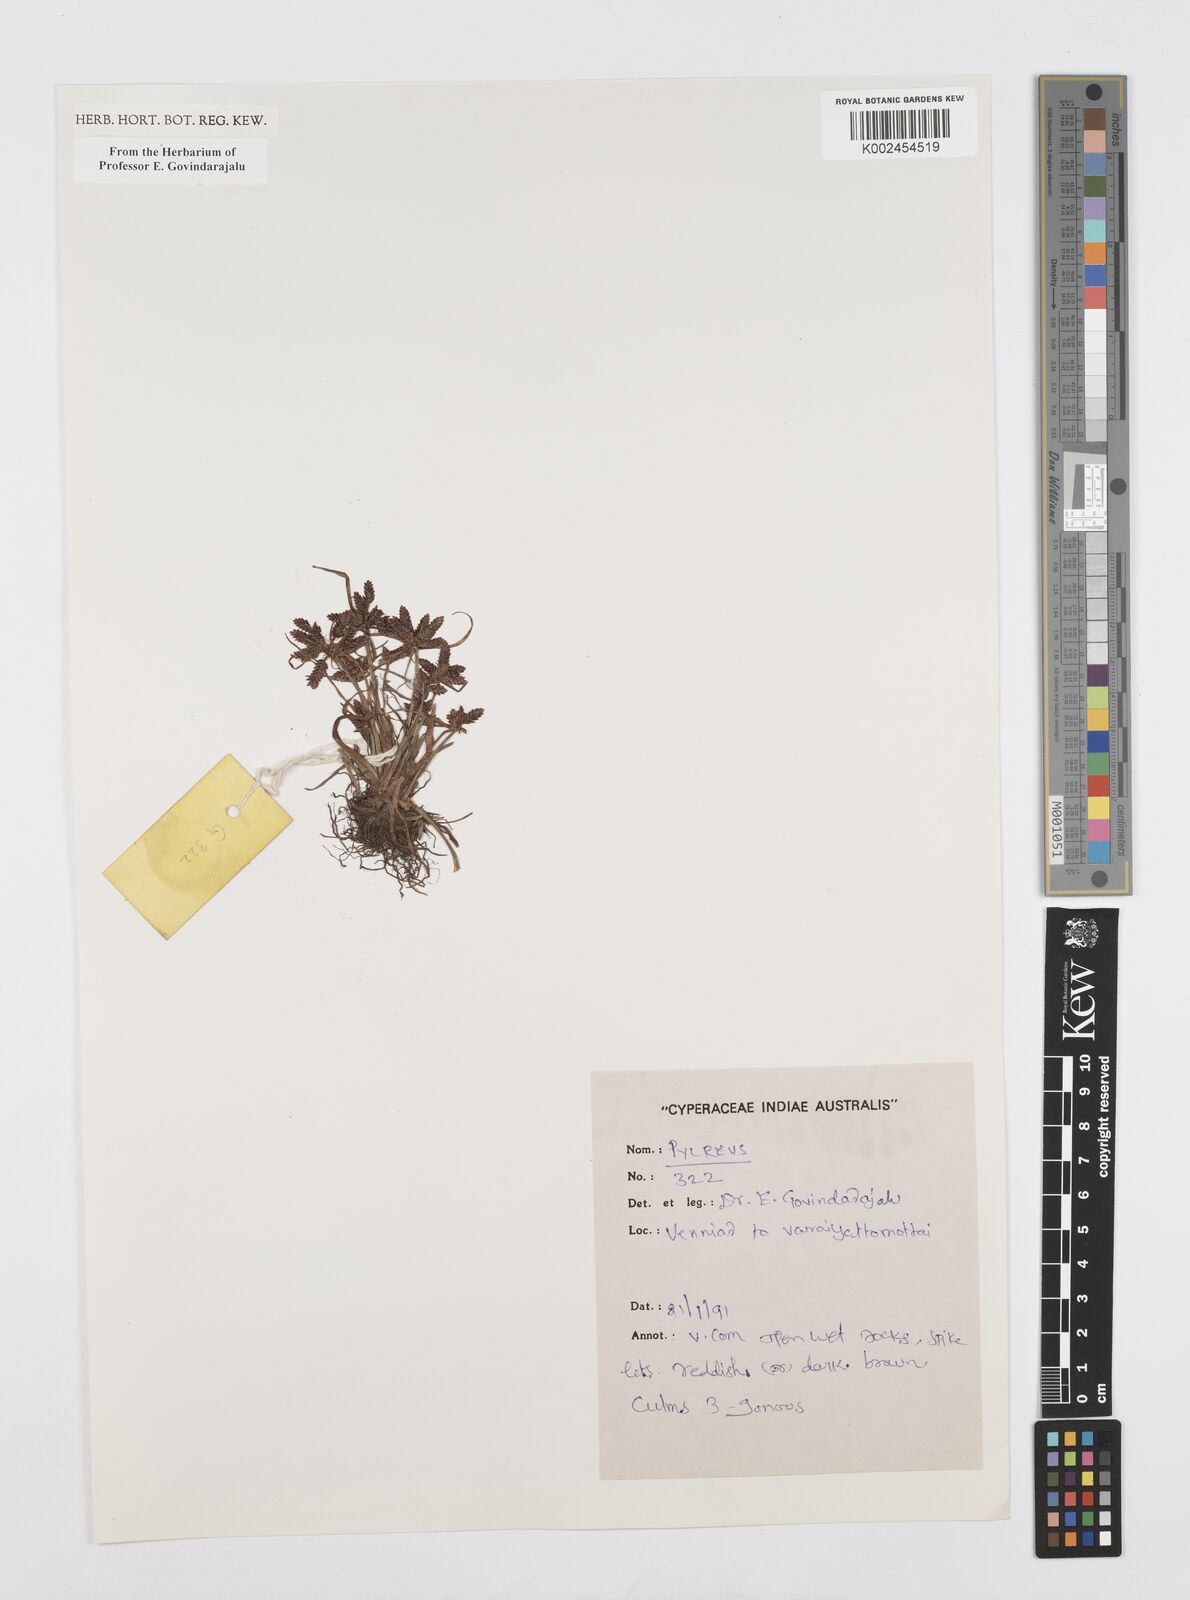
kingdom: Plantae
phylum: Tracheophyta
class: Liliopsida
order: Poales
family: Cyperaceae
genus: Cyperus
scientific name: Cyperus
